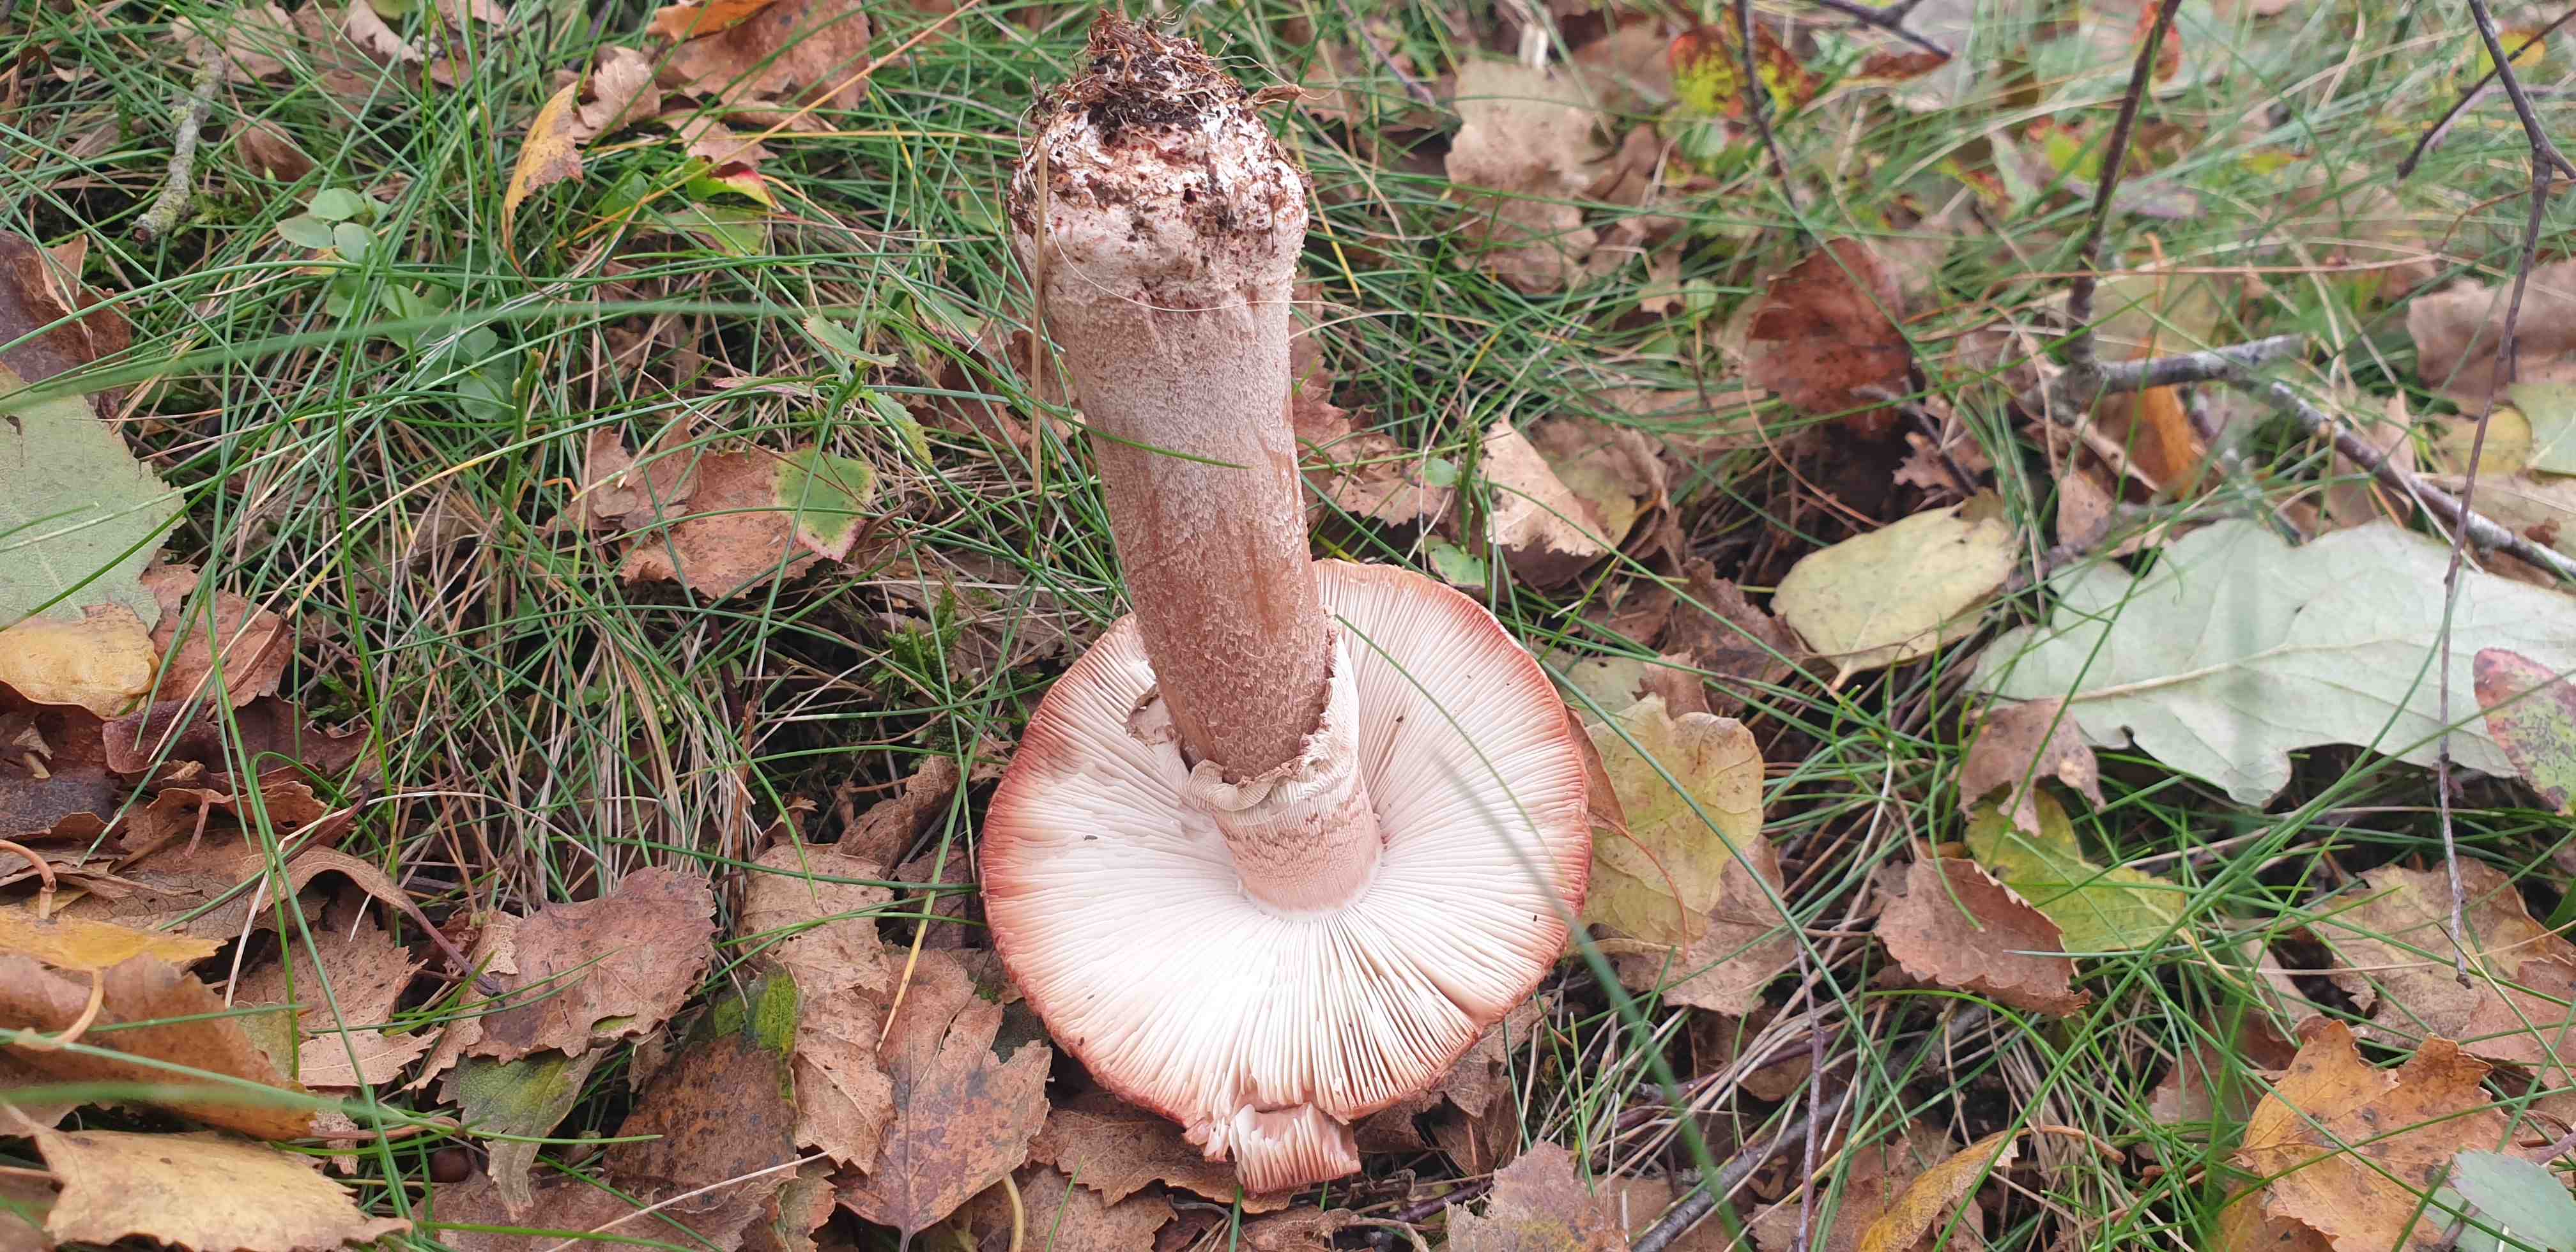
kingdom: Fungi
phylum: Basidiomycota
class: Agaricomycetes
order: Agaricales
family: Amanitaceae
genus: Amanita
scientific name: Amanita rubescens
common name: rødmende fluesvamp
